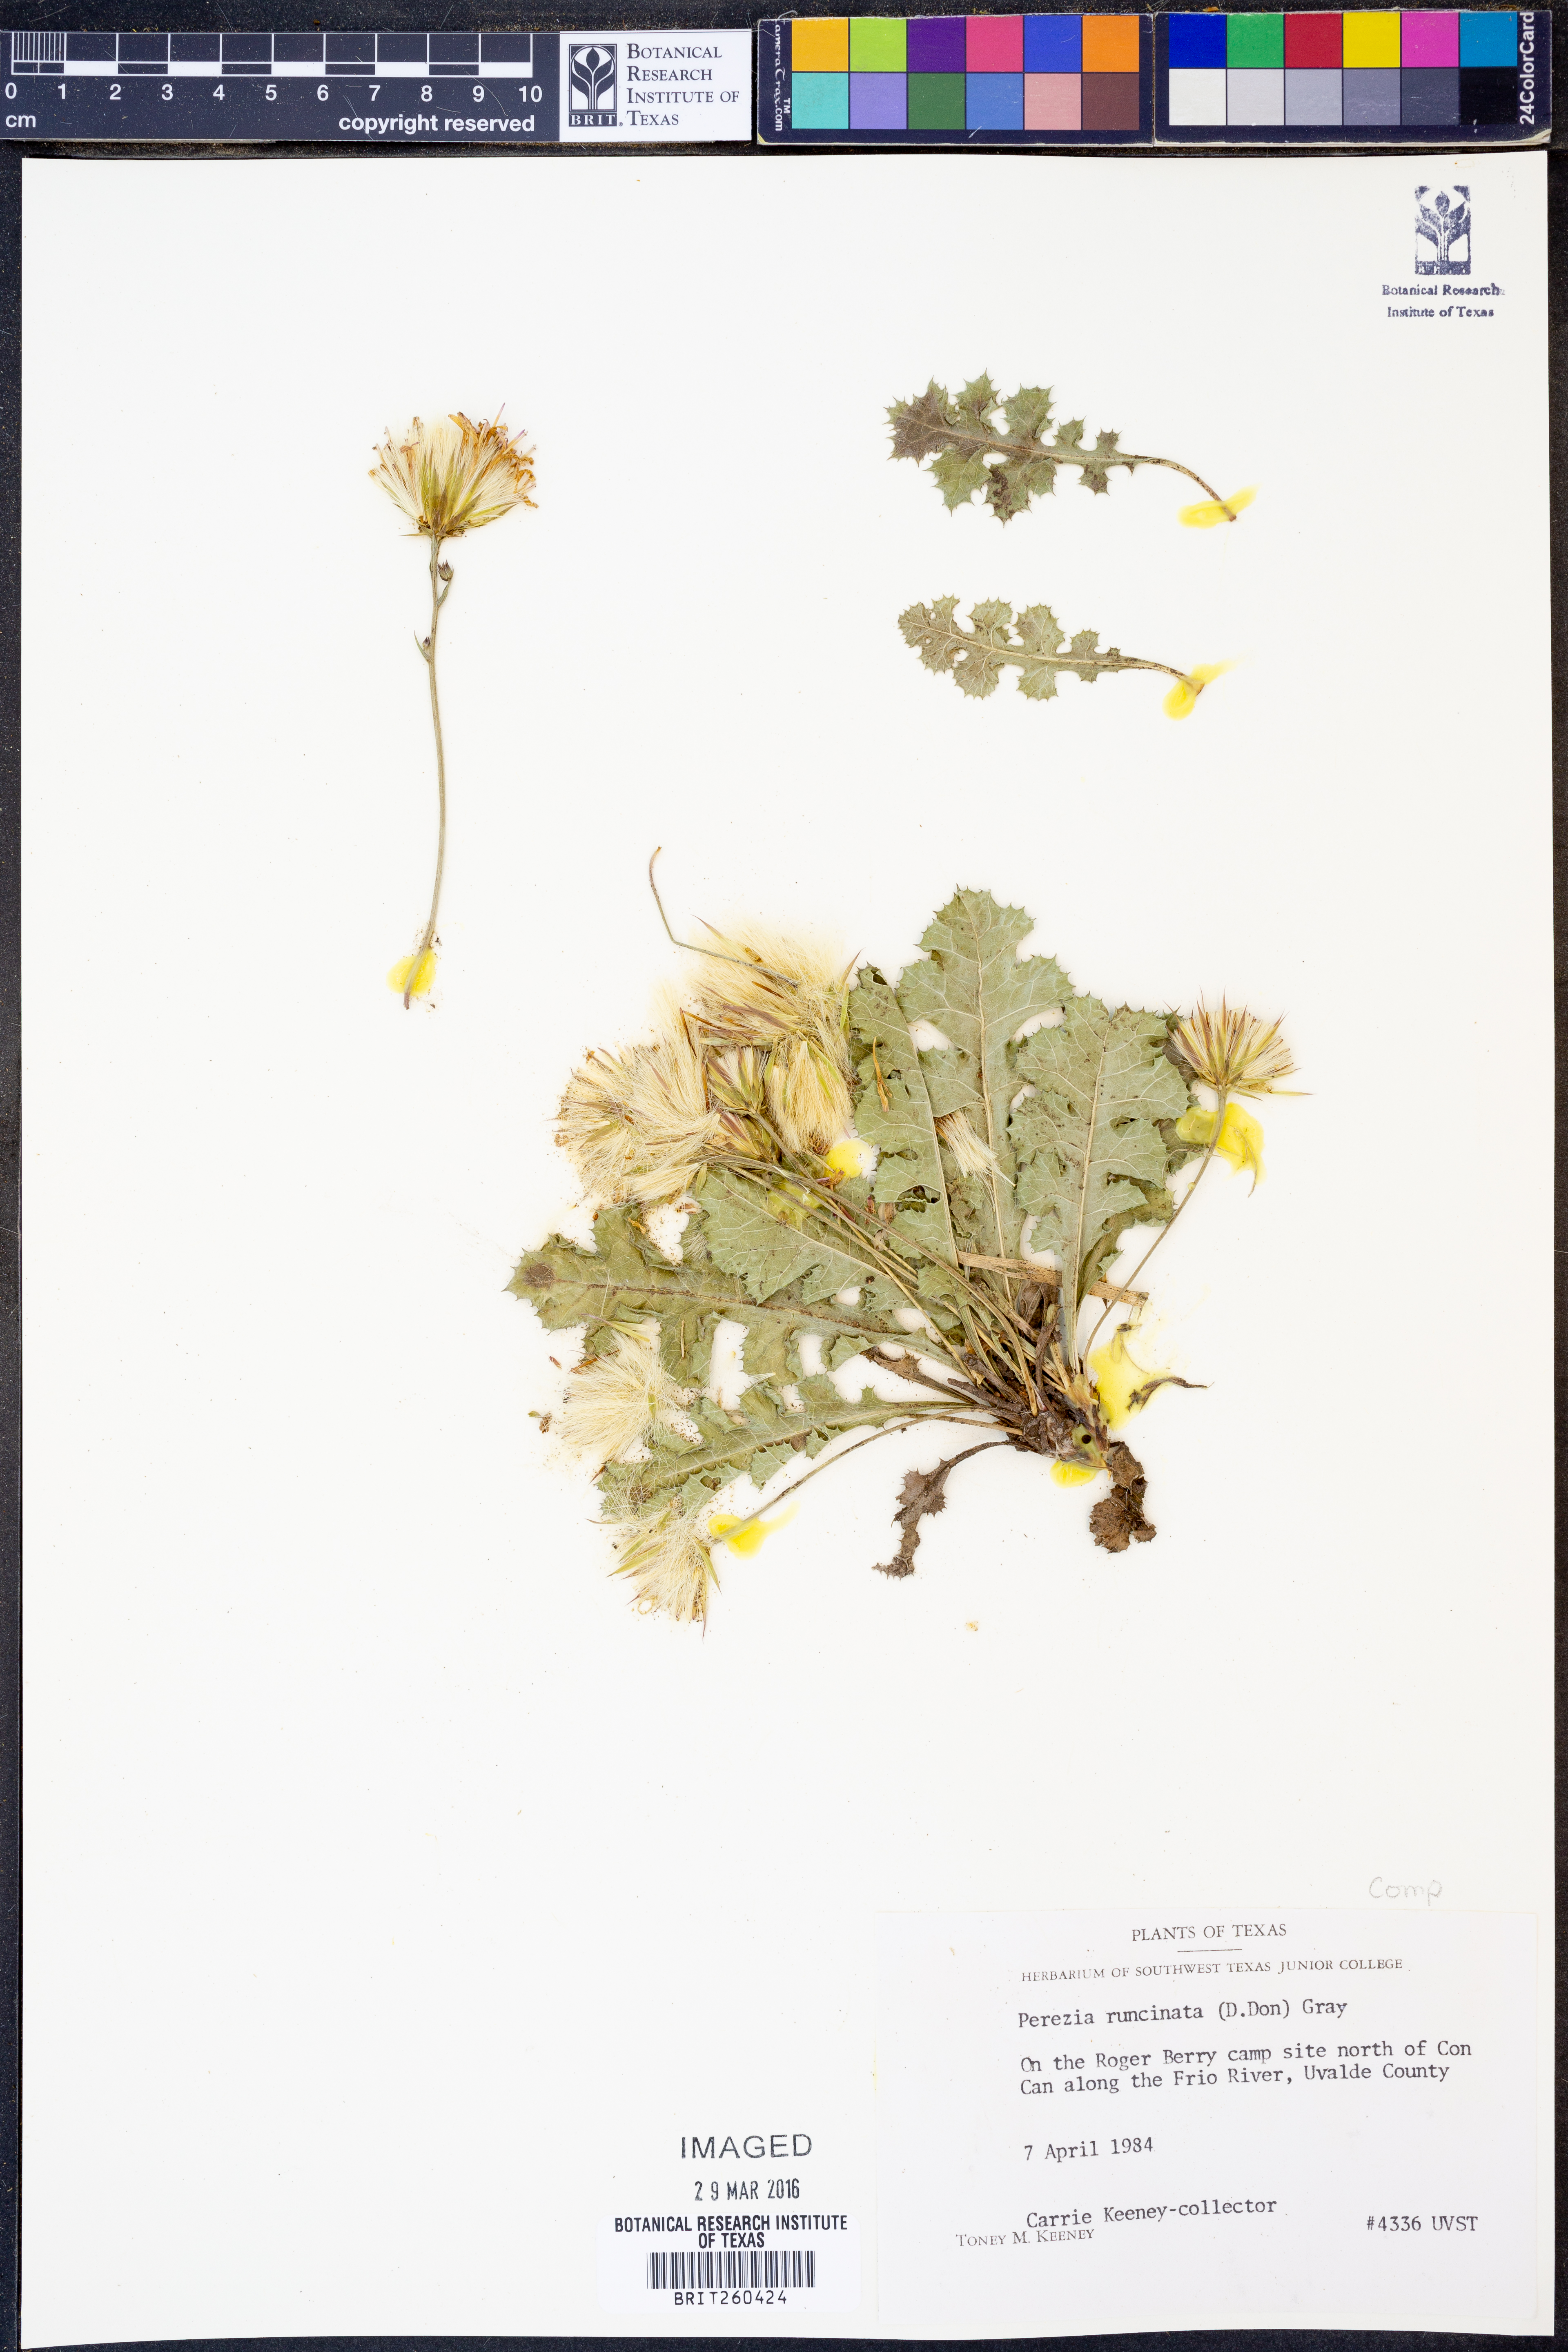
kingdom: Plantae
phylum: Tracheophyta
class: Magnoliopsida
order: Asterales
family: Asteraceae
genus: Acourtia
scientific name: Acourtia runcinata
